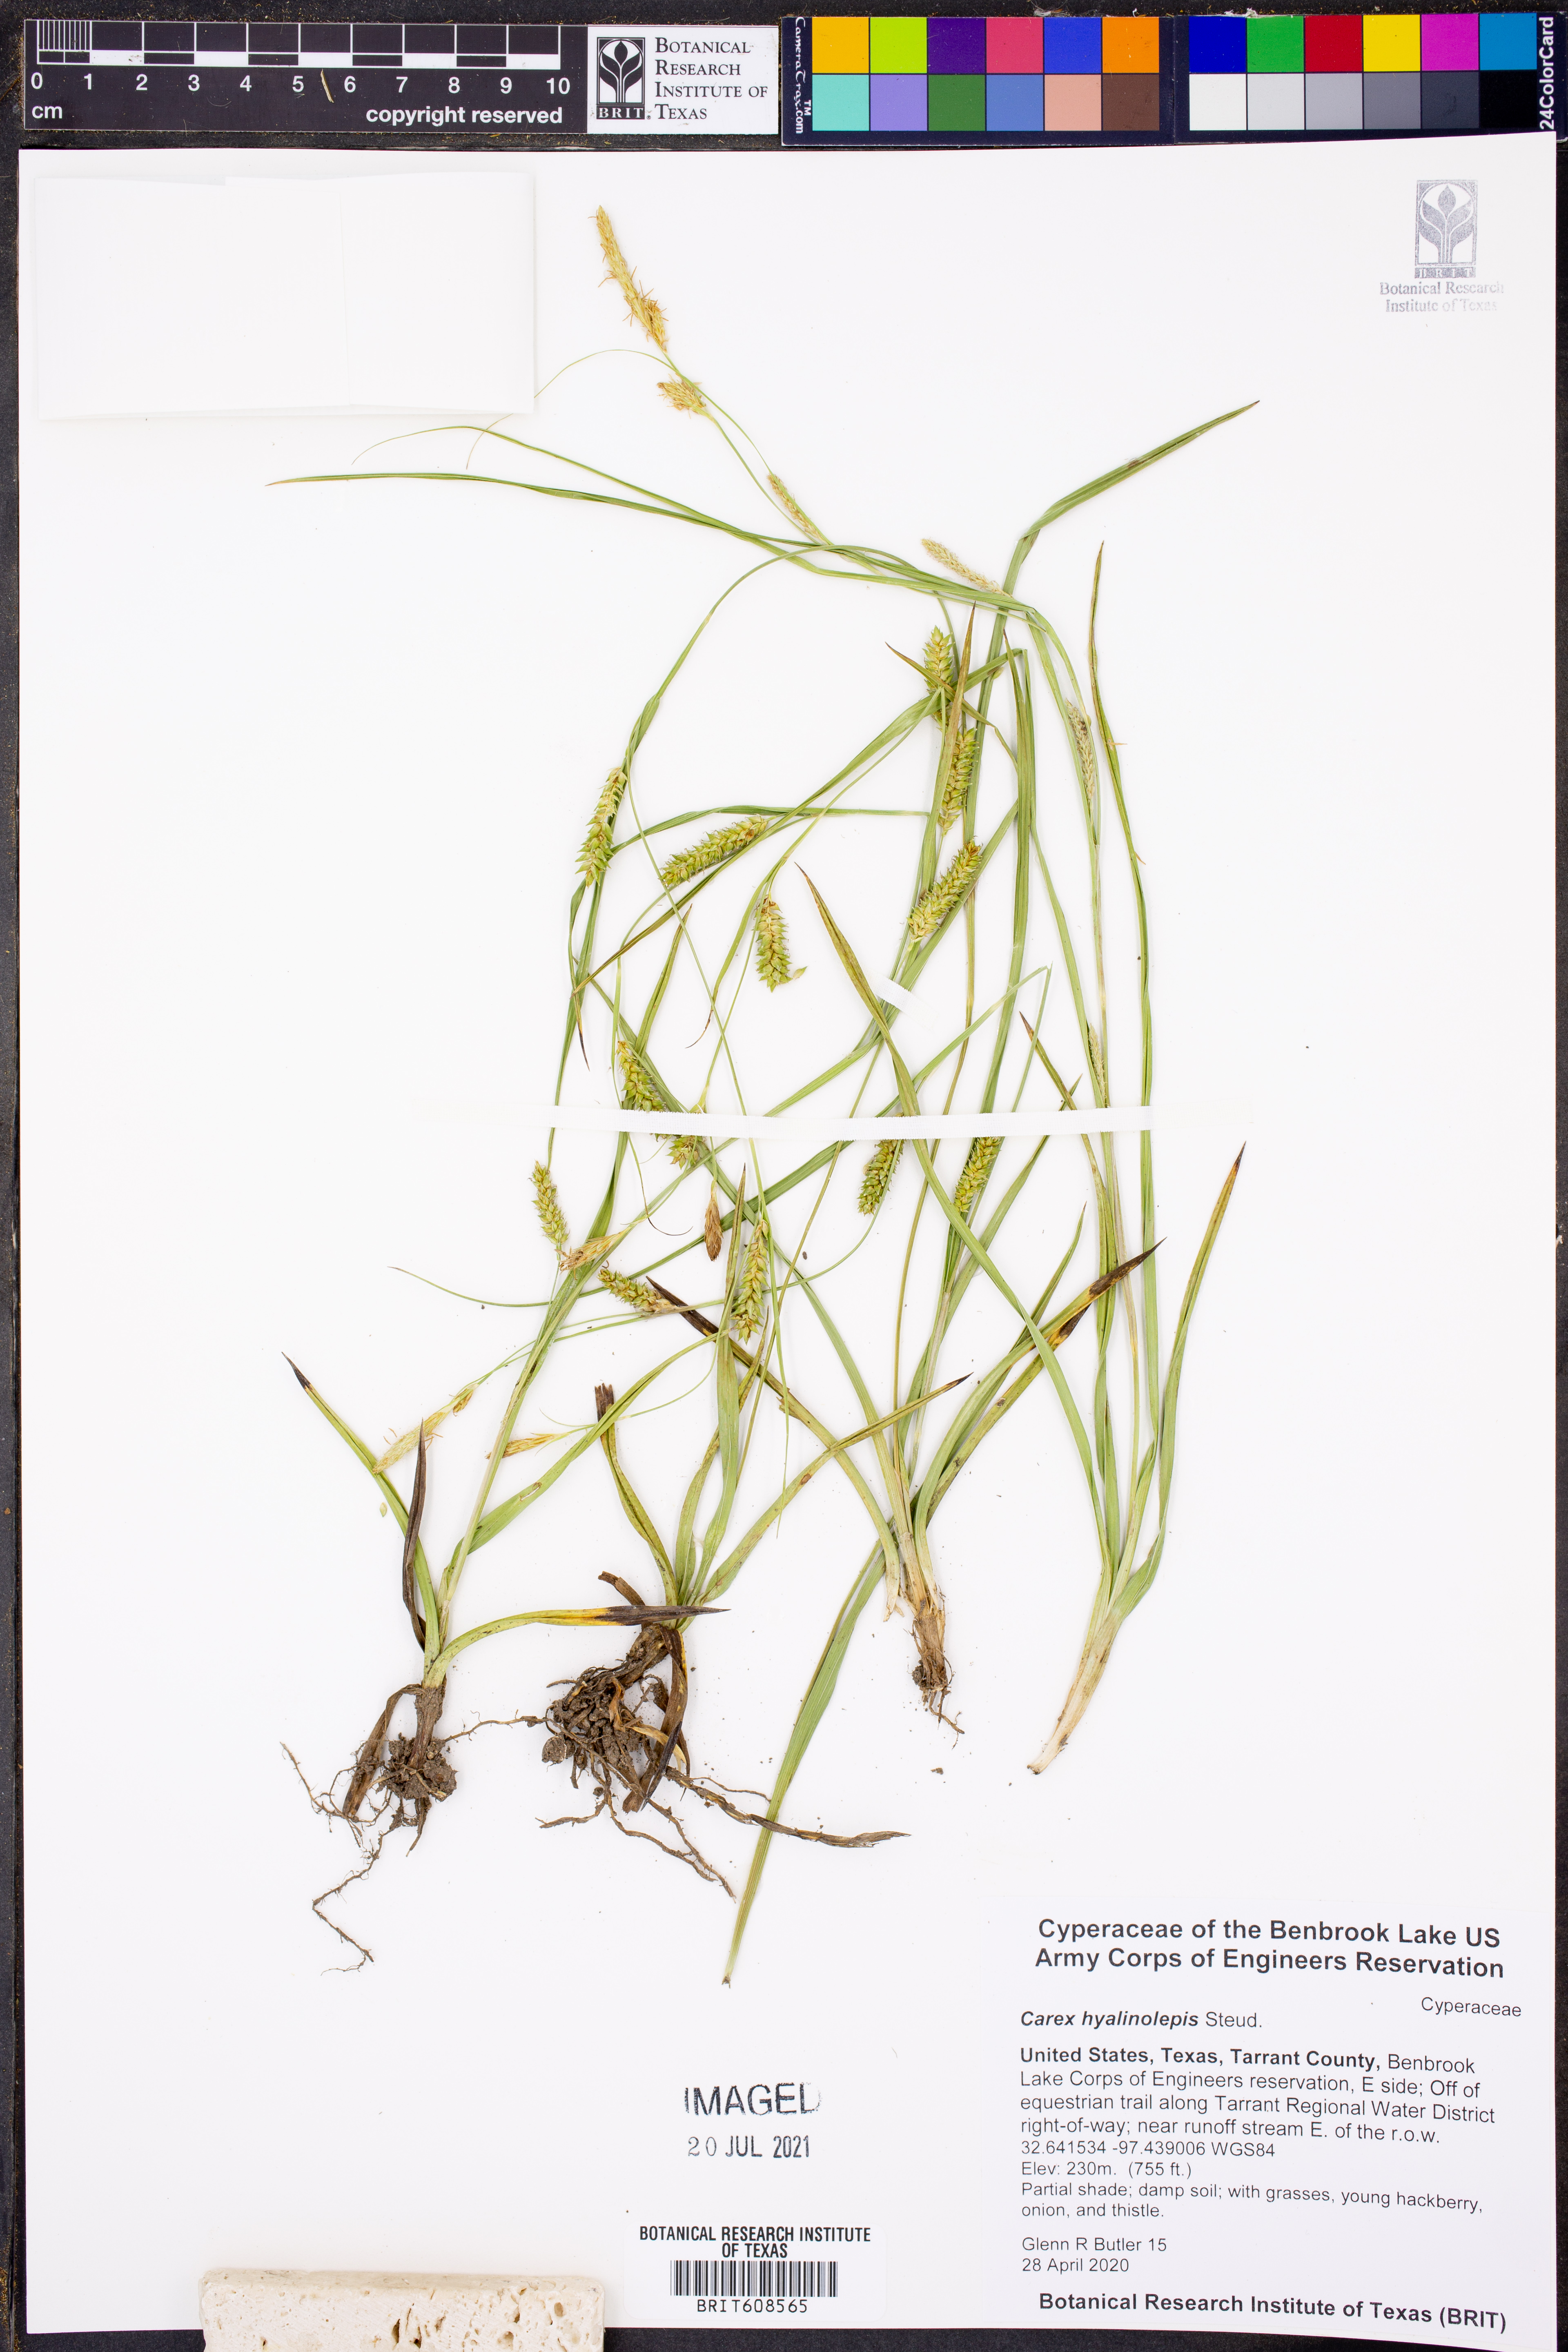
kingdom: Plantae
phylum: Tracheophyta
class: Liliopsida
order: Poales
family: Cyperaceae
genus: Carex
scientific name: Carex hyalinolepis
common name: Shoreline sedge
